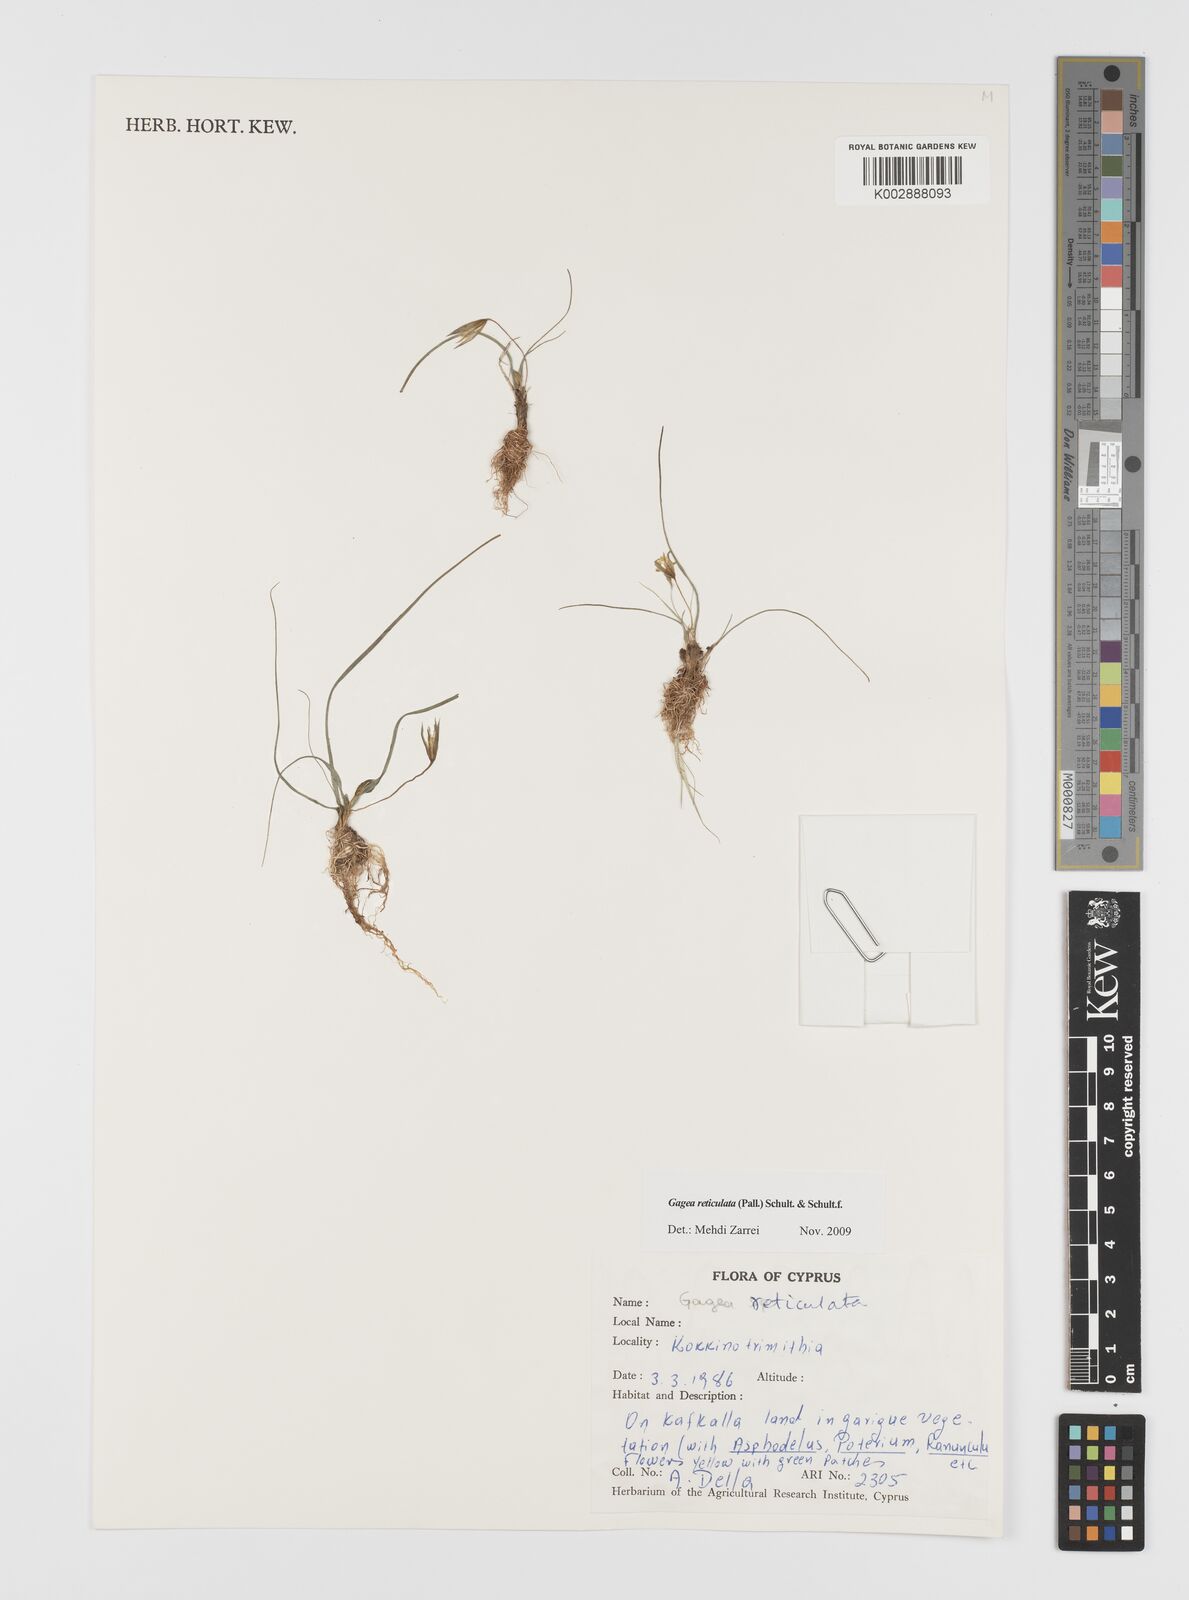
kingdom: Plantae
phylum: Tracheophyta
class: Liliopsida
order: Liliales
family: Liliaceae
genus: Gagea
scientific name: Gagea reticulata
